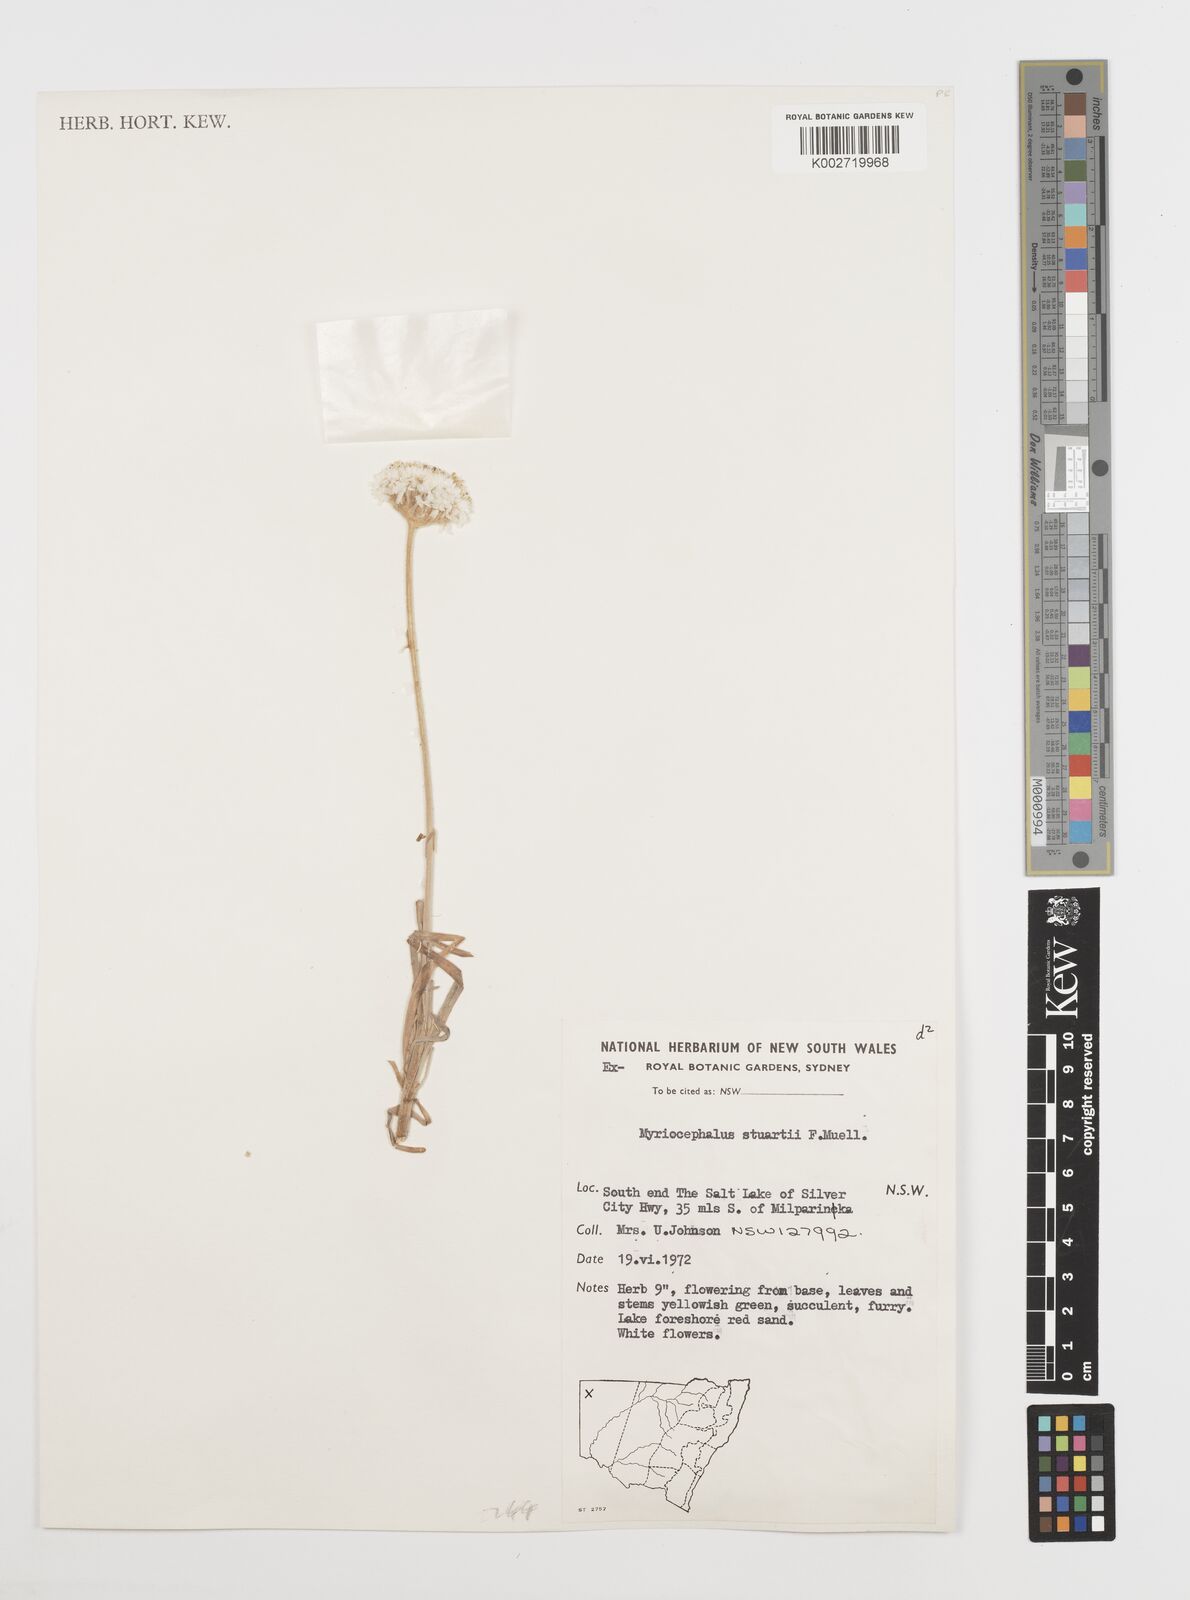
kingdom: Plantae
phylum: Tracheophyta
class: Magnoliopsida
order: Asterales
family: Asteraceae
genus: Polycalymma
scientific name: Polycalymma stuartii
